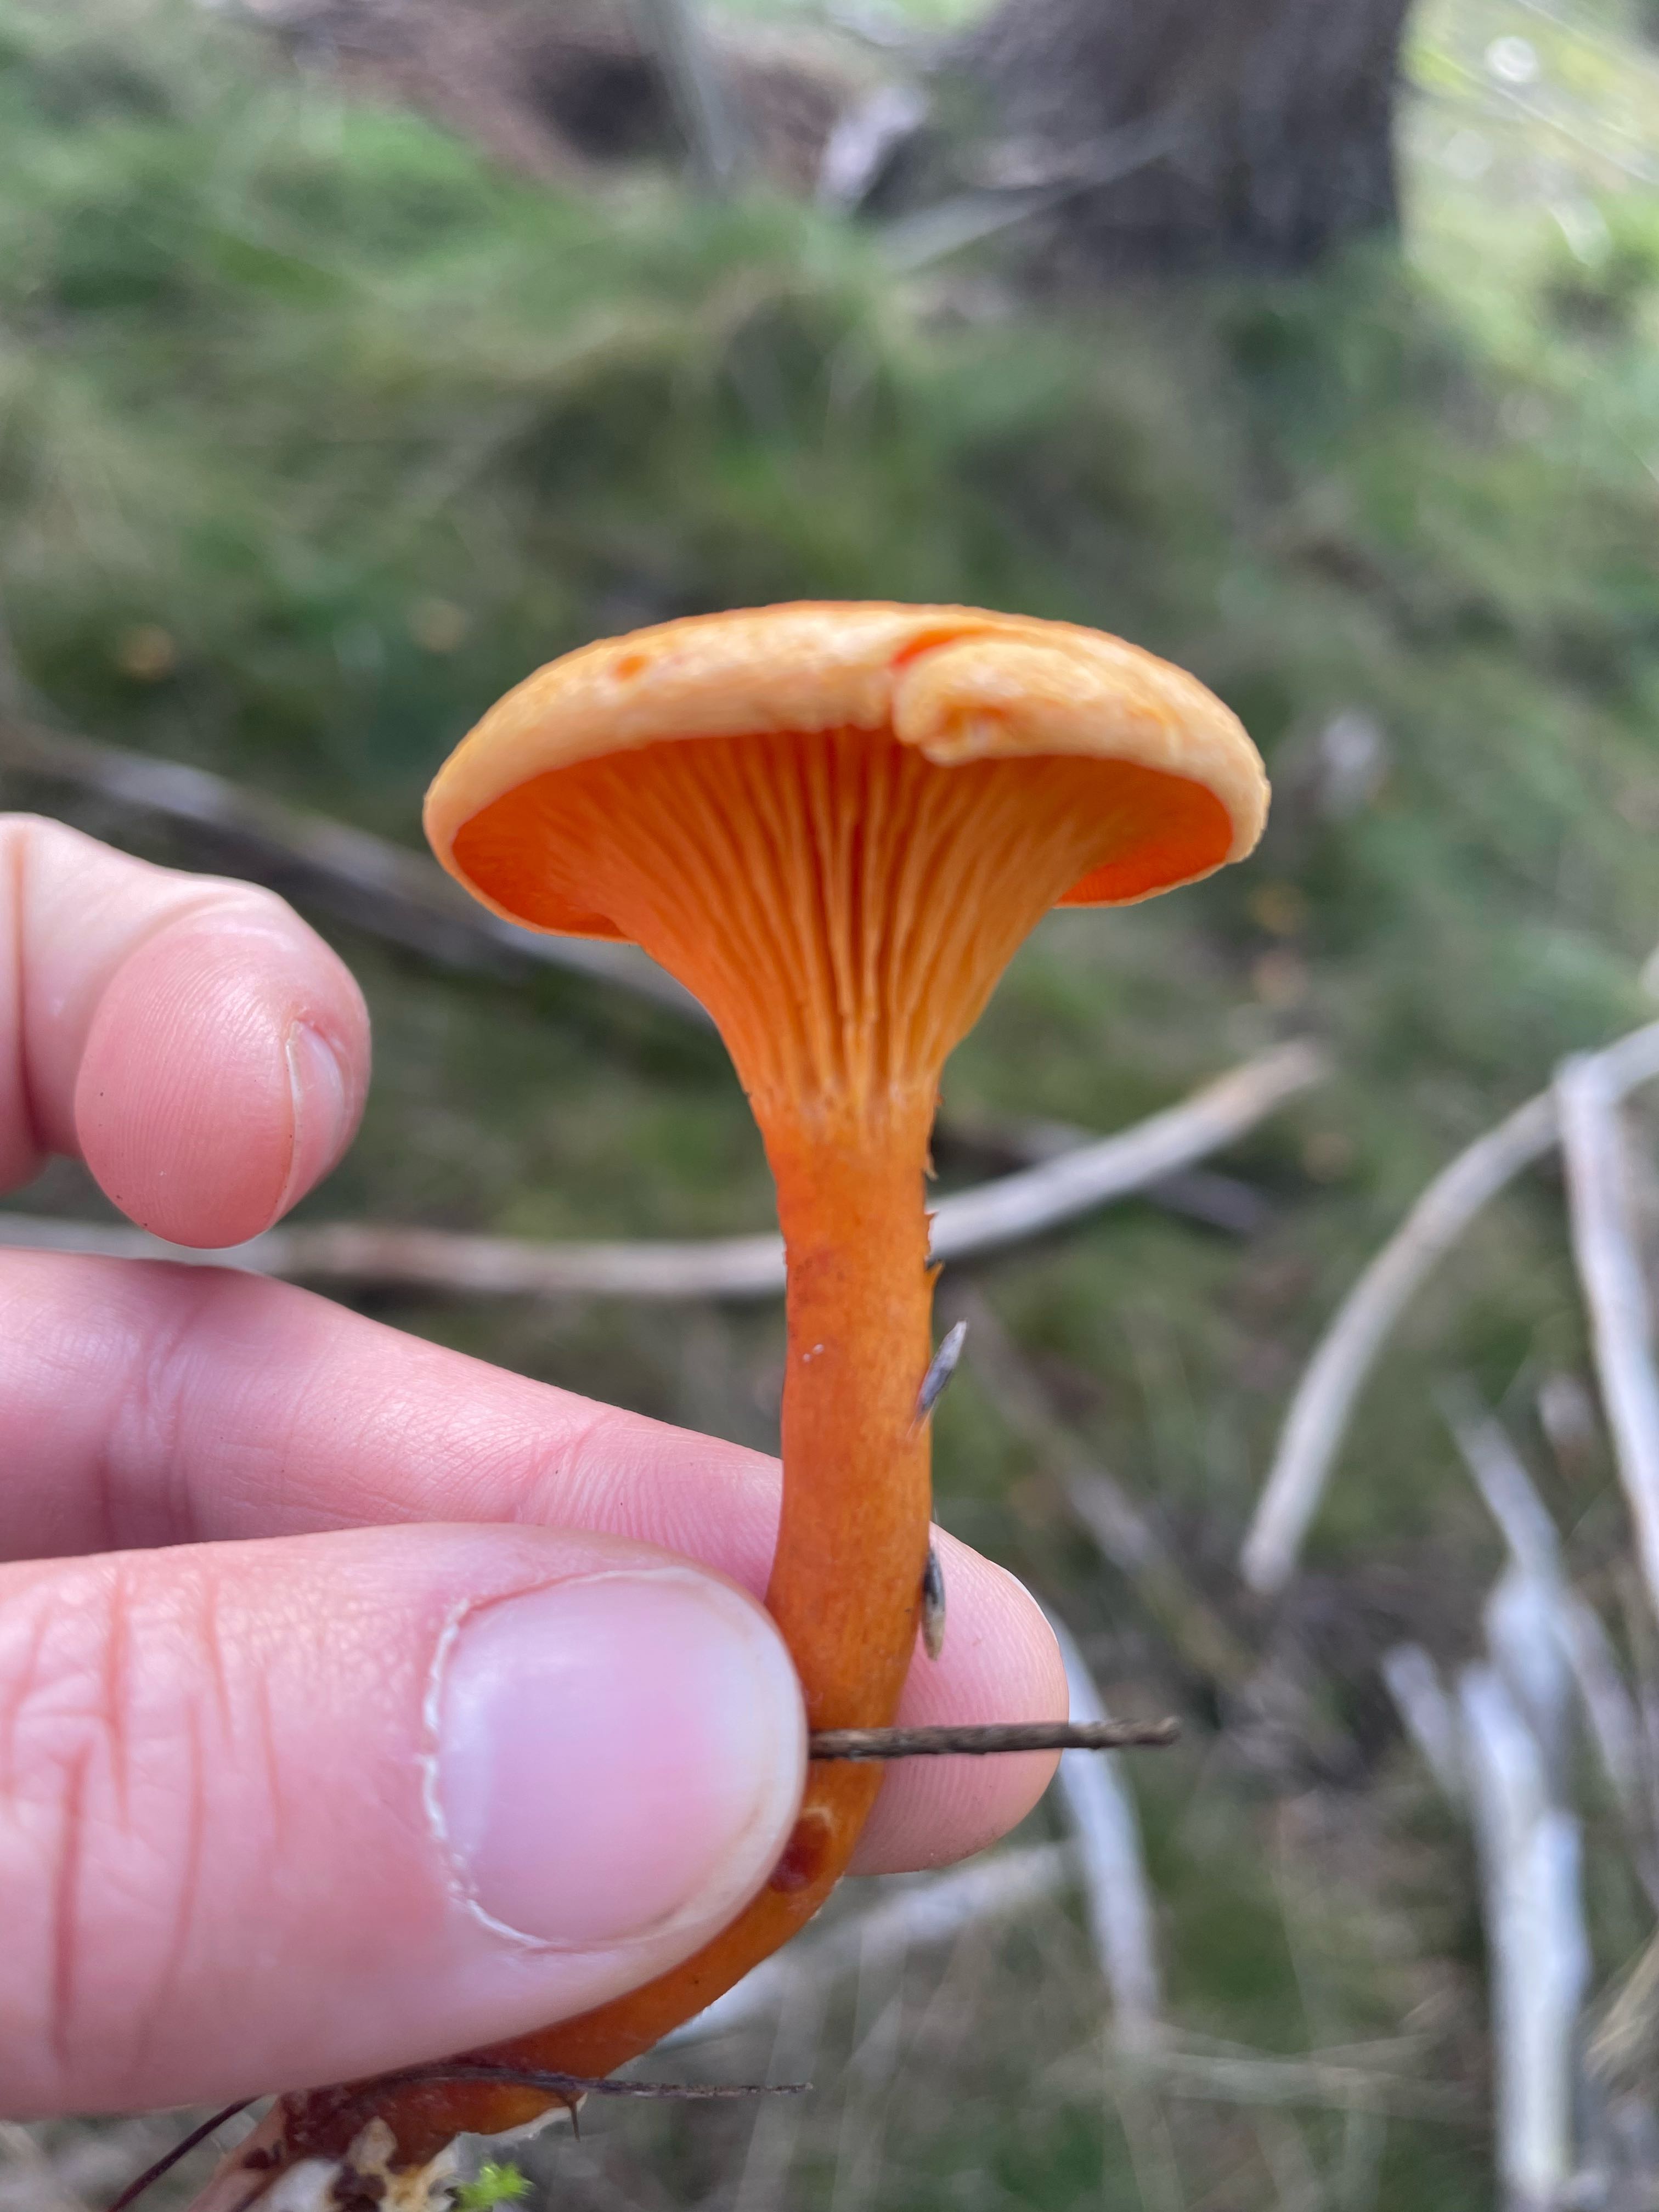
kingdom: Fungi
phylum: Basidiomycota
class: Agaricomycetes
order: Boletales
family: Hygrophoropsidaceae
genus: Hygrophoropsis
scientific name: Hygrophoropsis aurantiaca
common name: almindelig orangekantarel
